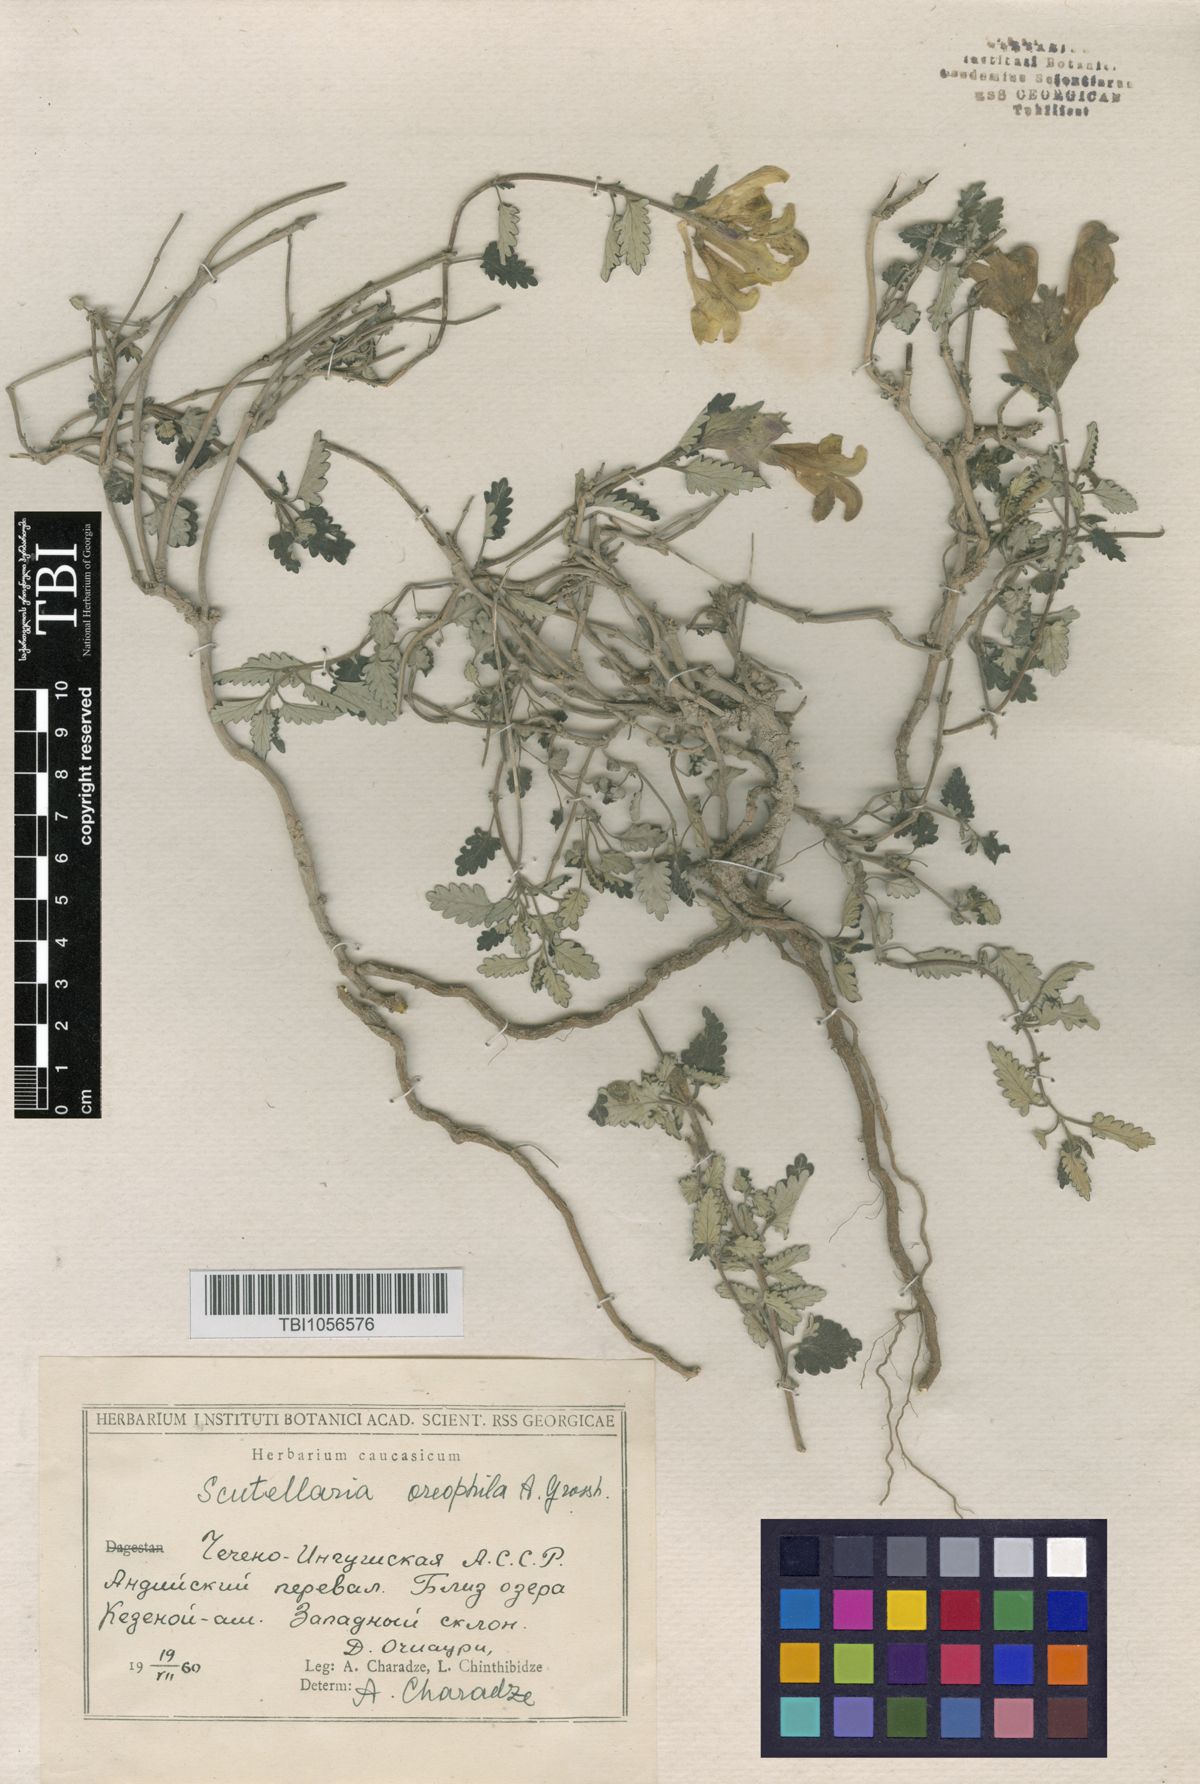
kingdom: Plantae
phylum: Tracheophyta
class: Magnoliopsida
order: Lamiales
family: Lamiaceae
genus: Scutellaria
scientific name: Scutellaria oreophila
